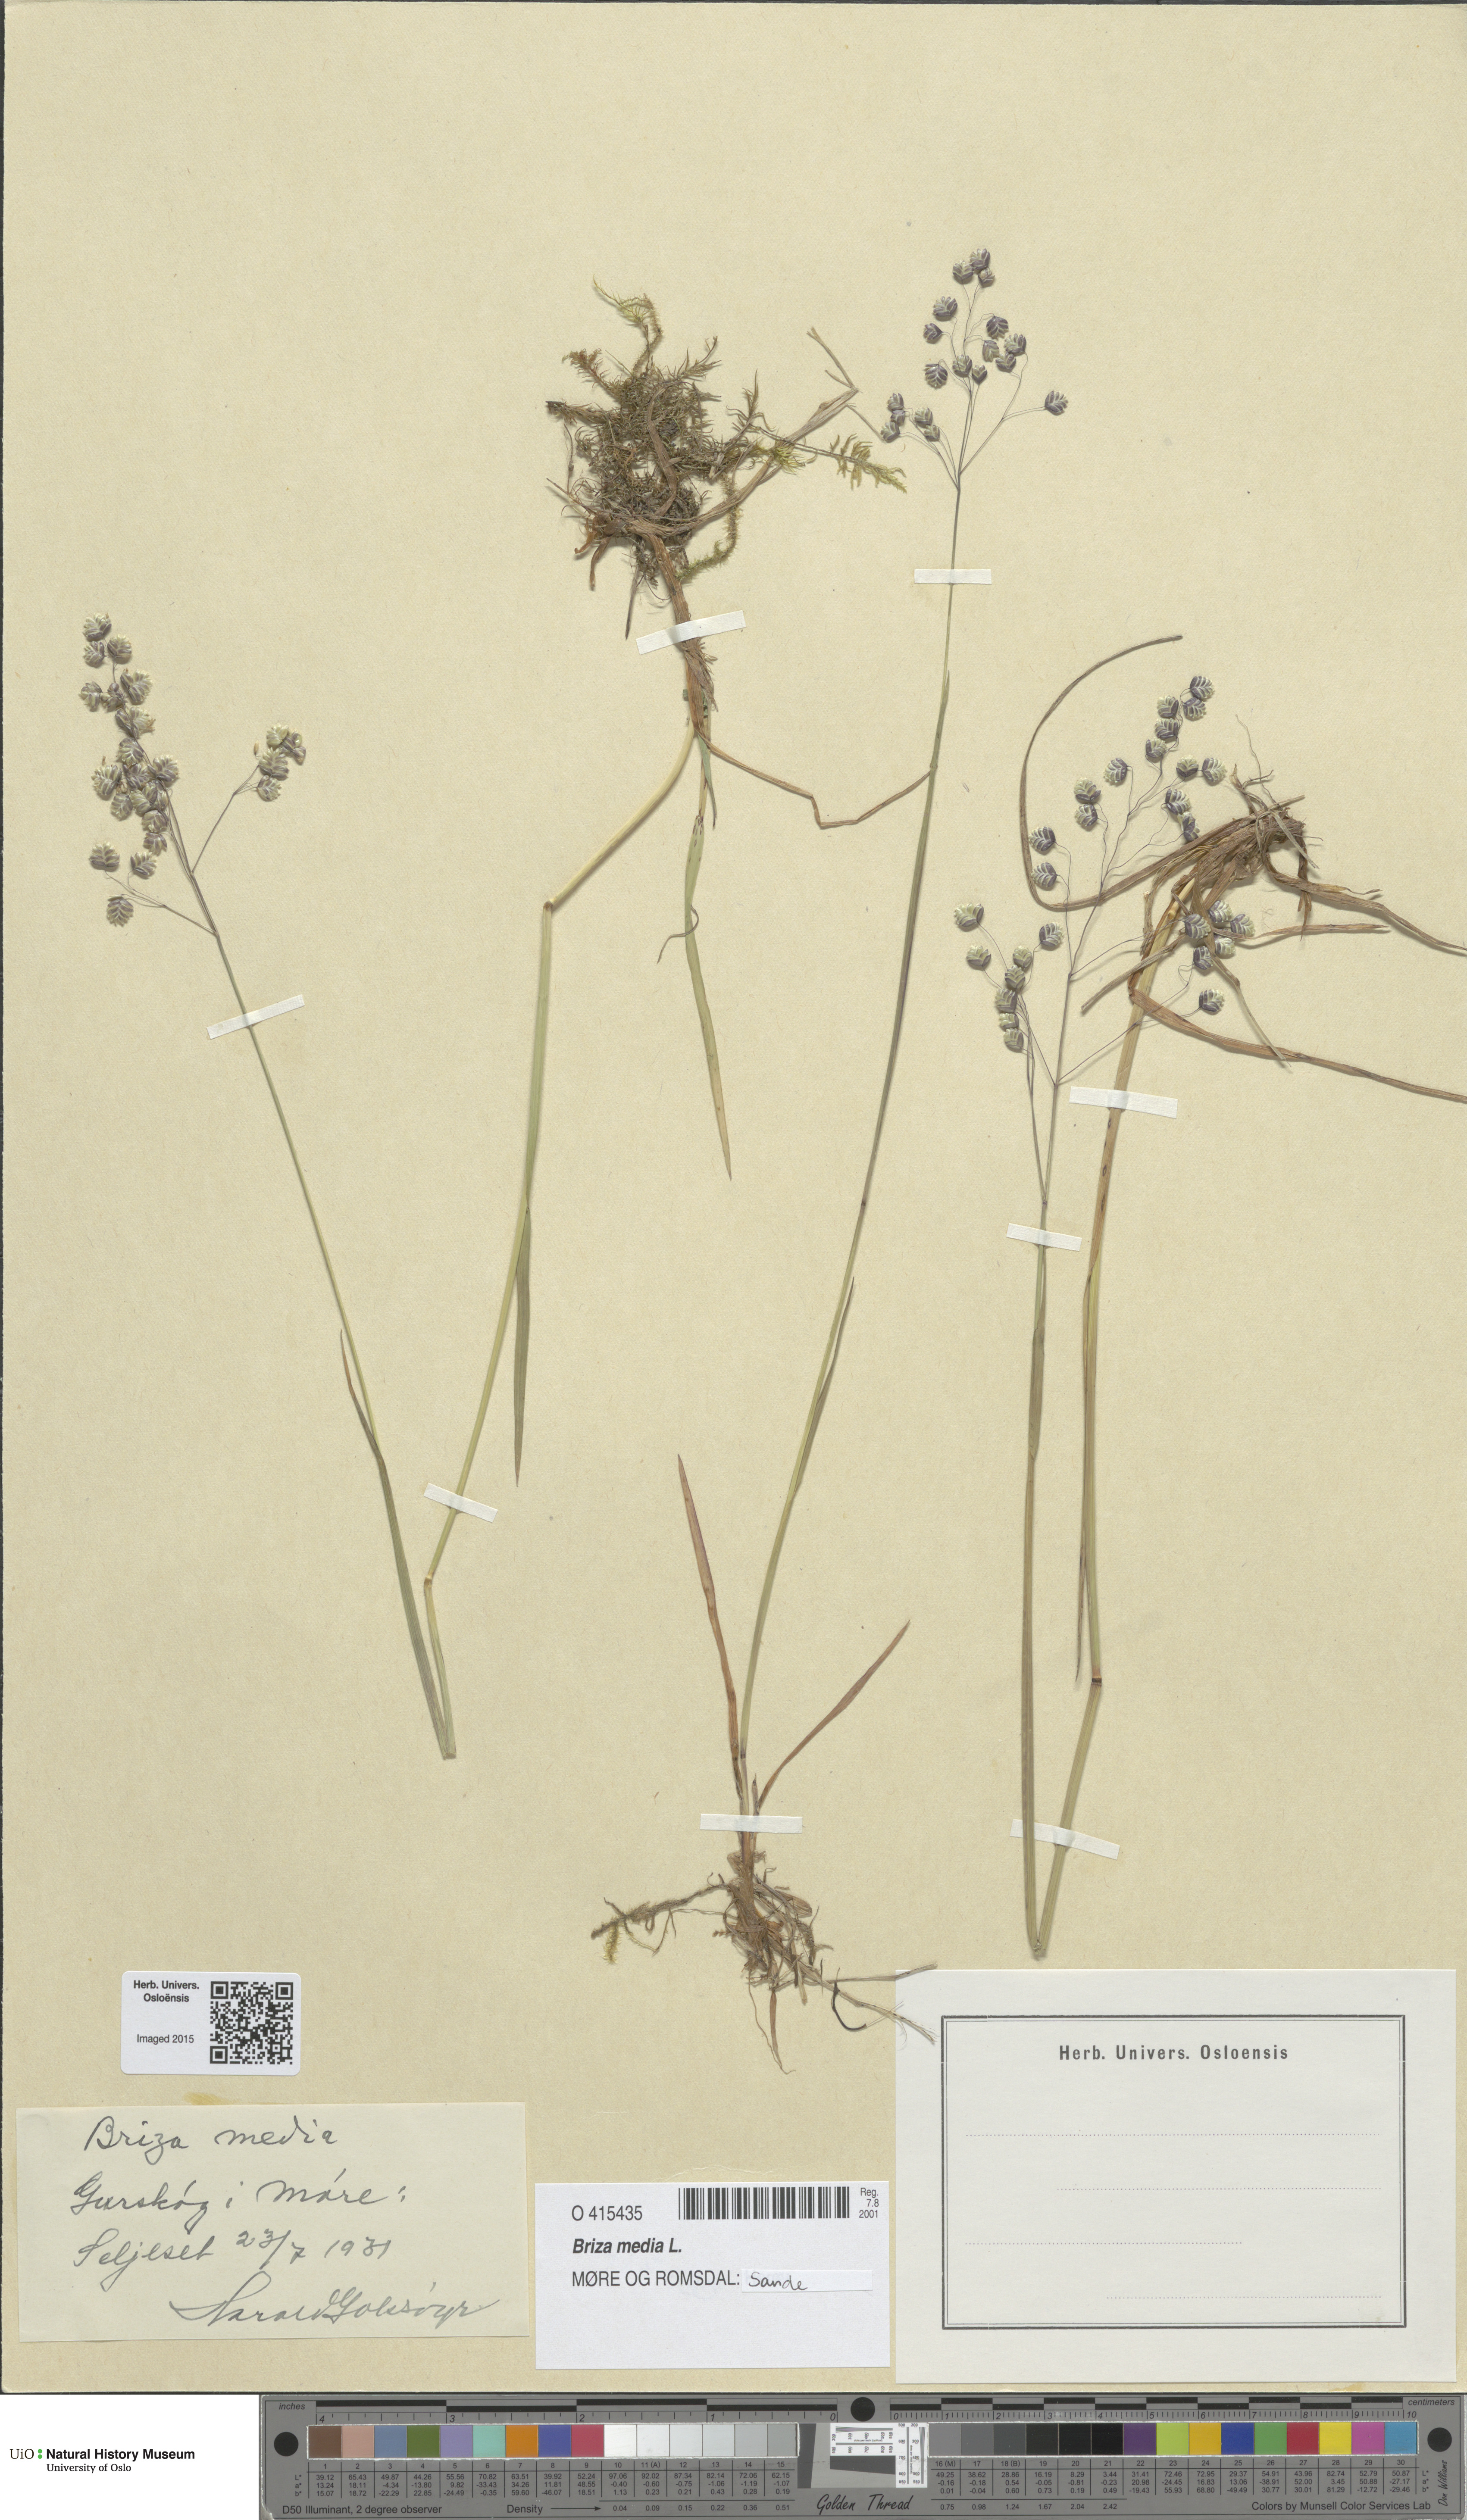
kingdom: Plantae
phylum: Tracheophyta
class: Liliopsida
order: Poales
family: Poaceae
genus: Briza
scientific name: Briza media
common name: Quaking grass
